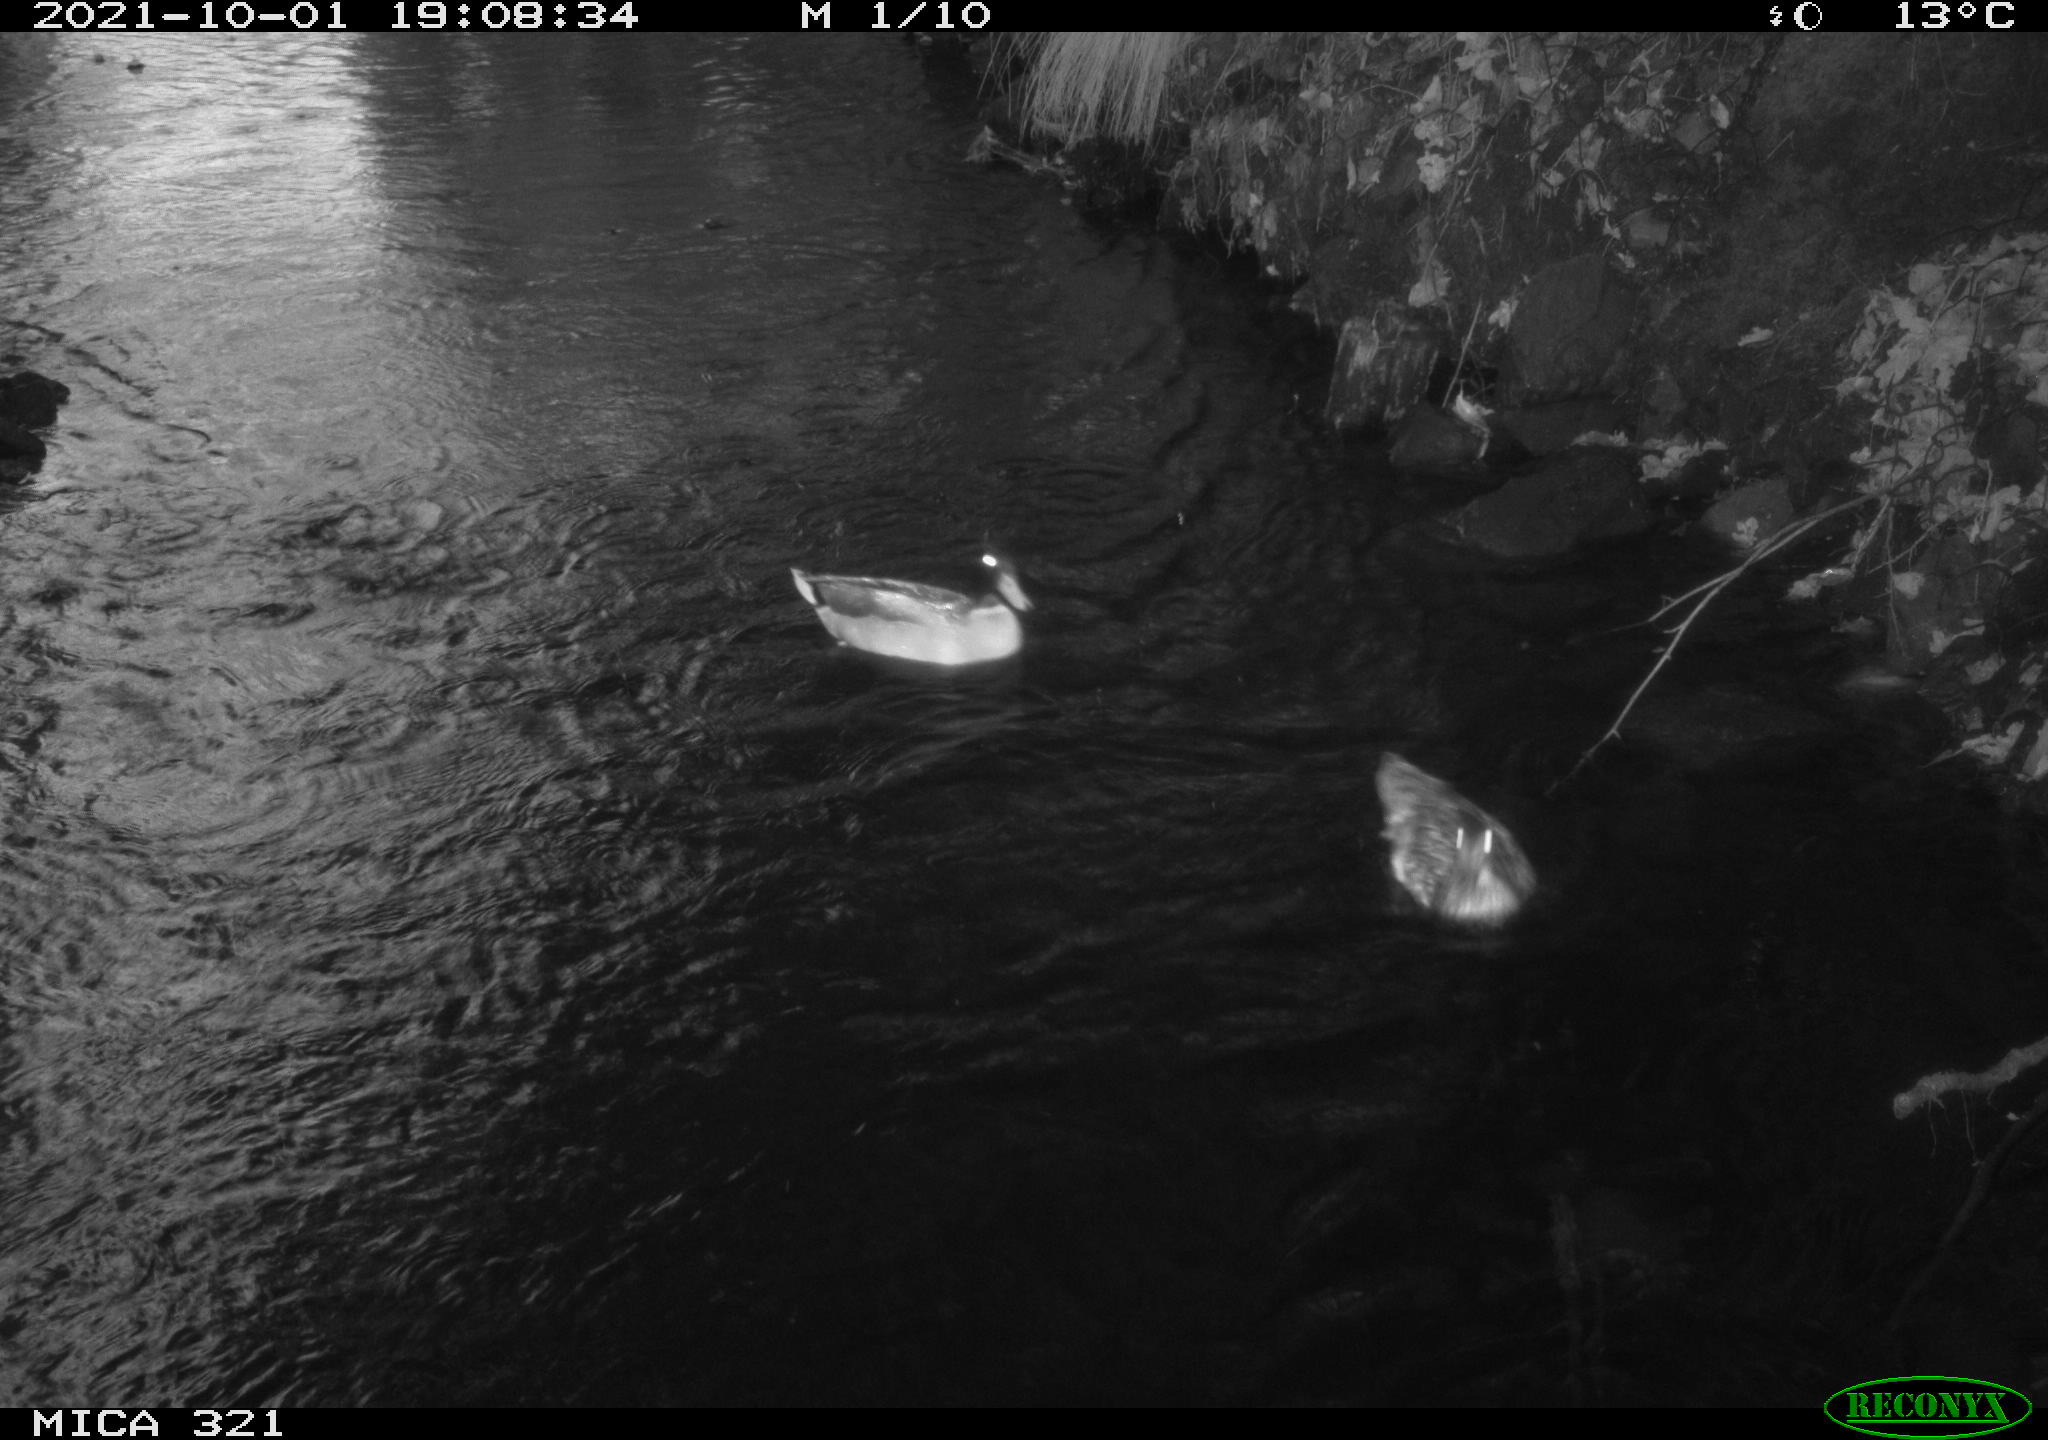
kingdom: Animalia
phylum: Chordata
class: Aves
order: Anseriformes
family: Anatidae
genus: Anas
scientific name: Anas platyrhynchos
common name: Mallard
